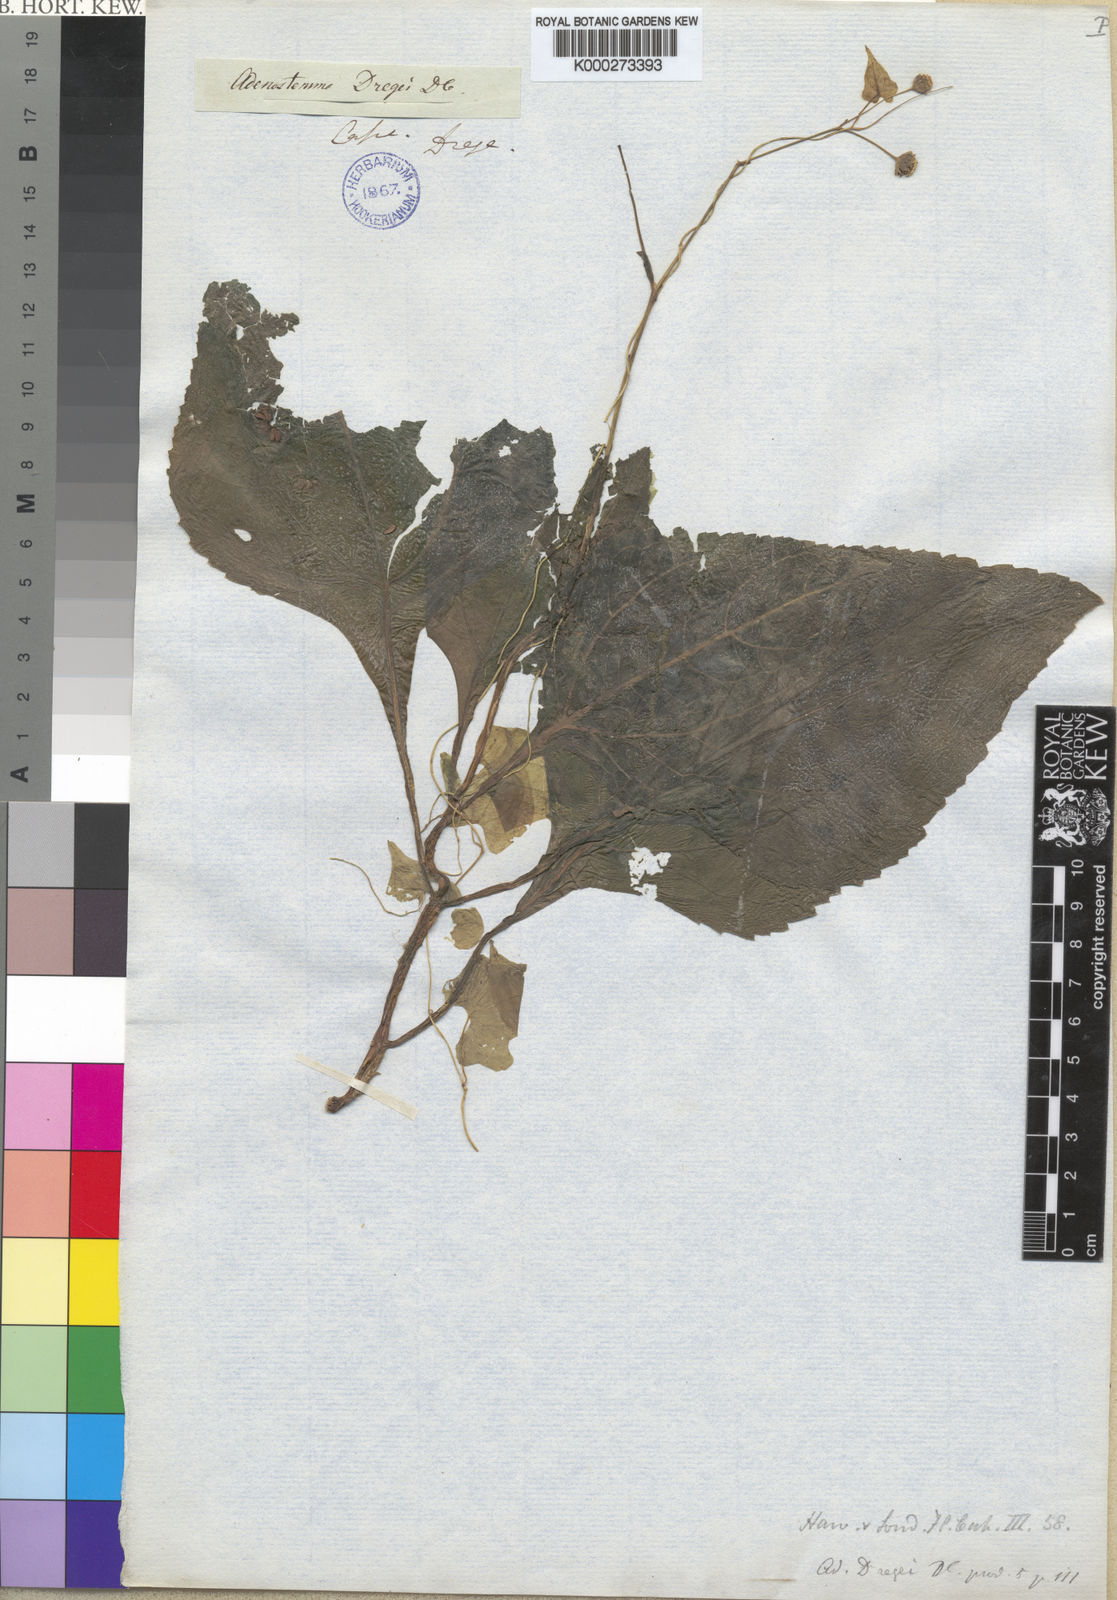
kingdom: Plantae
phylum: Tracheophyta
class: Magnoliopsida
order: Asterales
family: Asteraceae
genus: Adenostemma
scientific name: Adenostemma viscosum
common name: Dungweed
